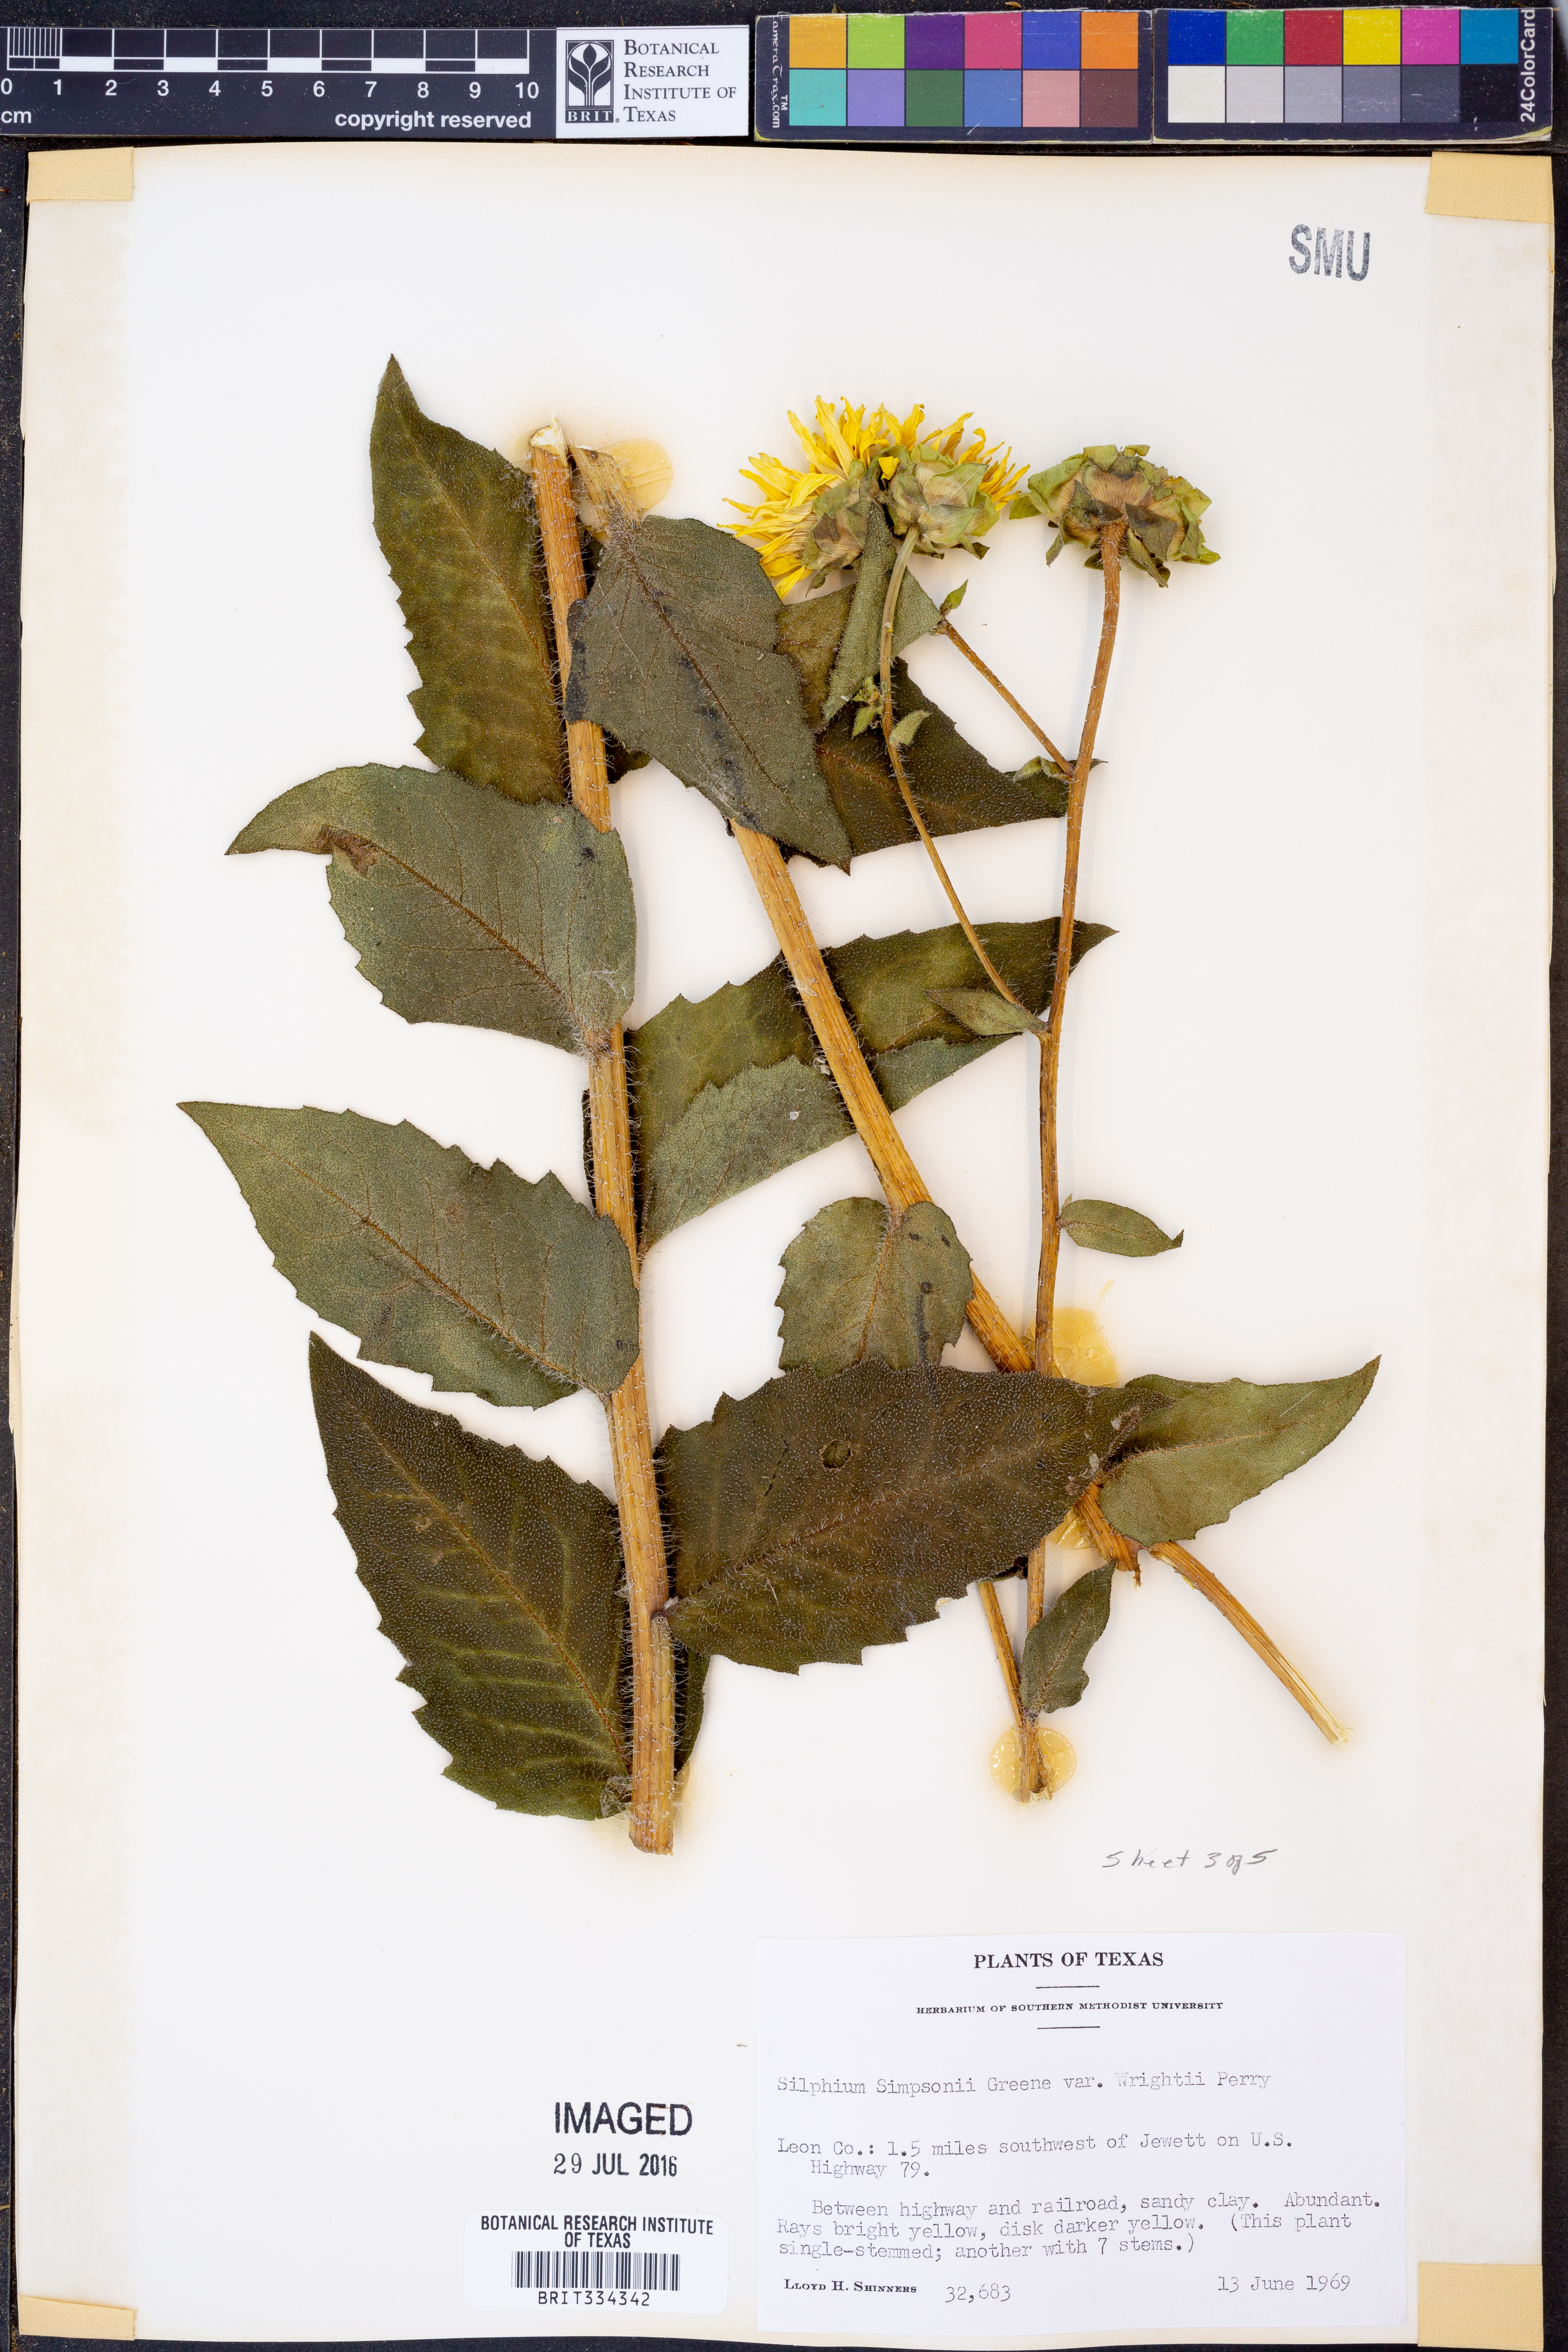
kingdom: Plantae
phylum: Tracheophyta
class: Magnoliopsida
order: Asterales
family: Asteraceae
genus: Silphium
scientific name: Silphium radula
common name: Roughleaf rosinweed
